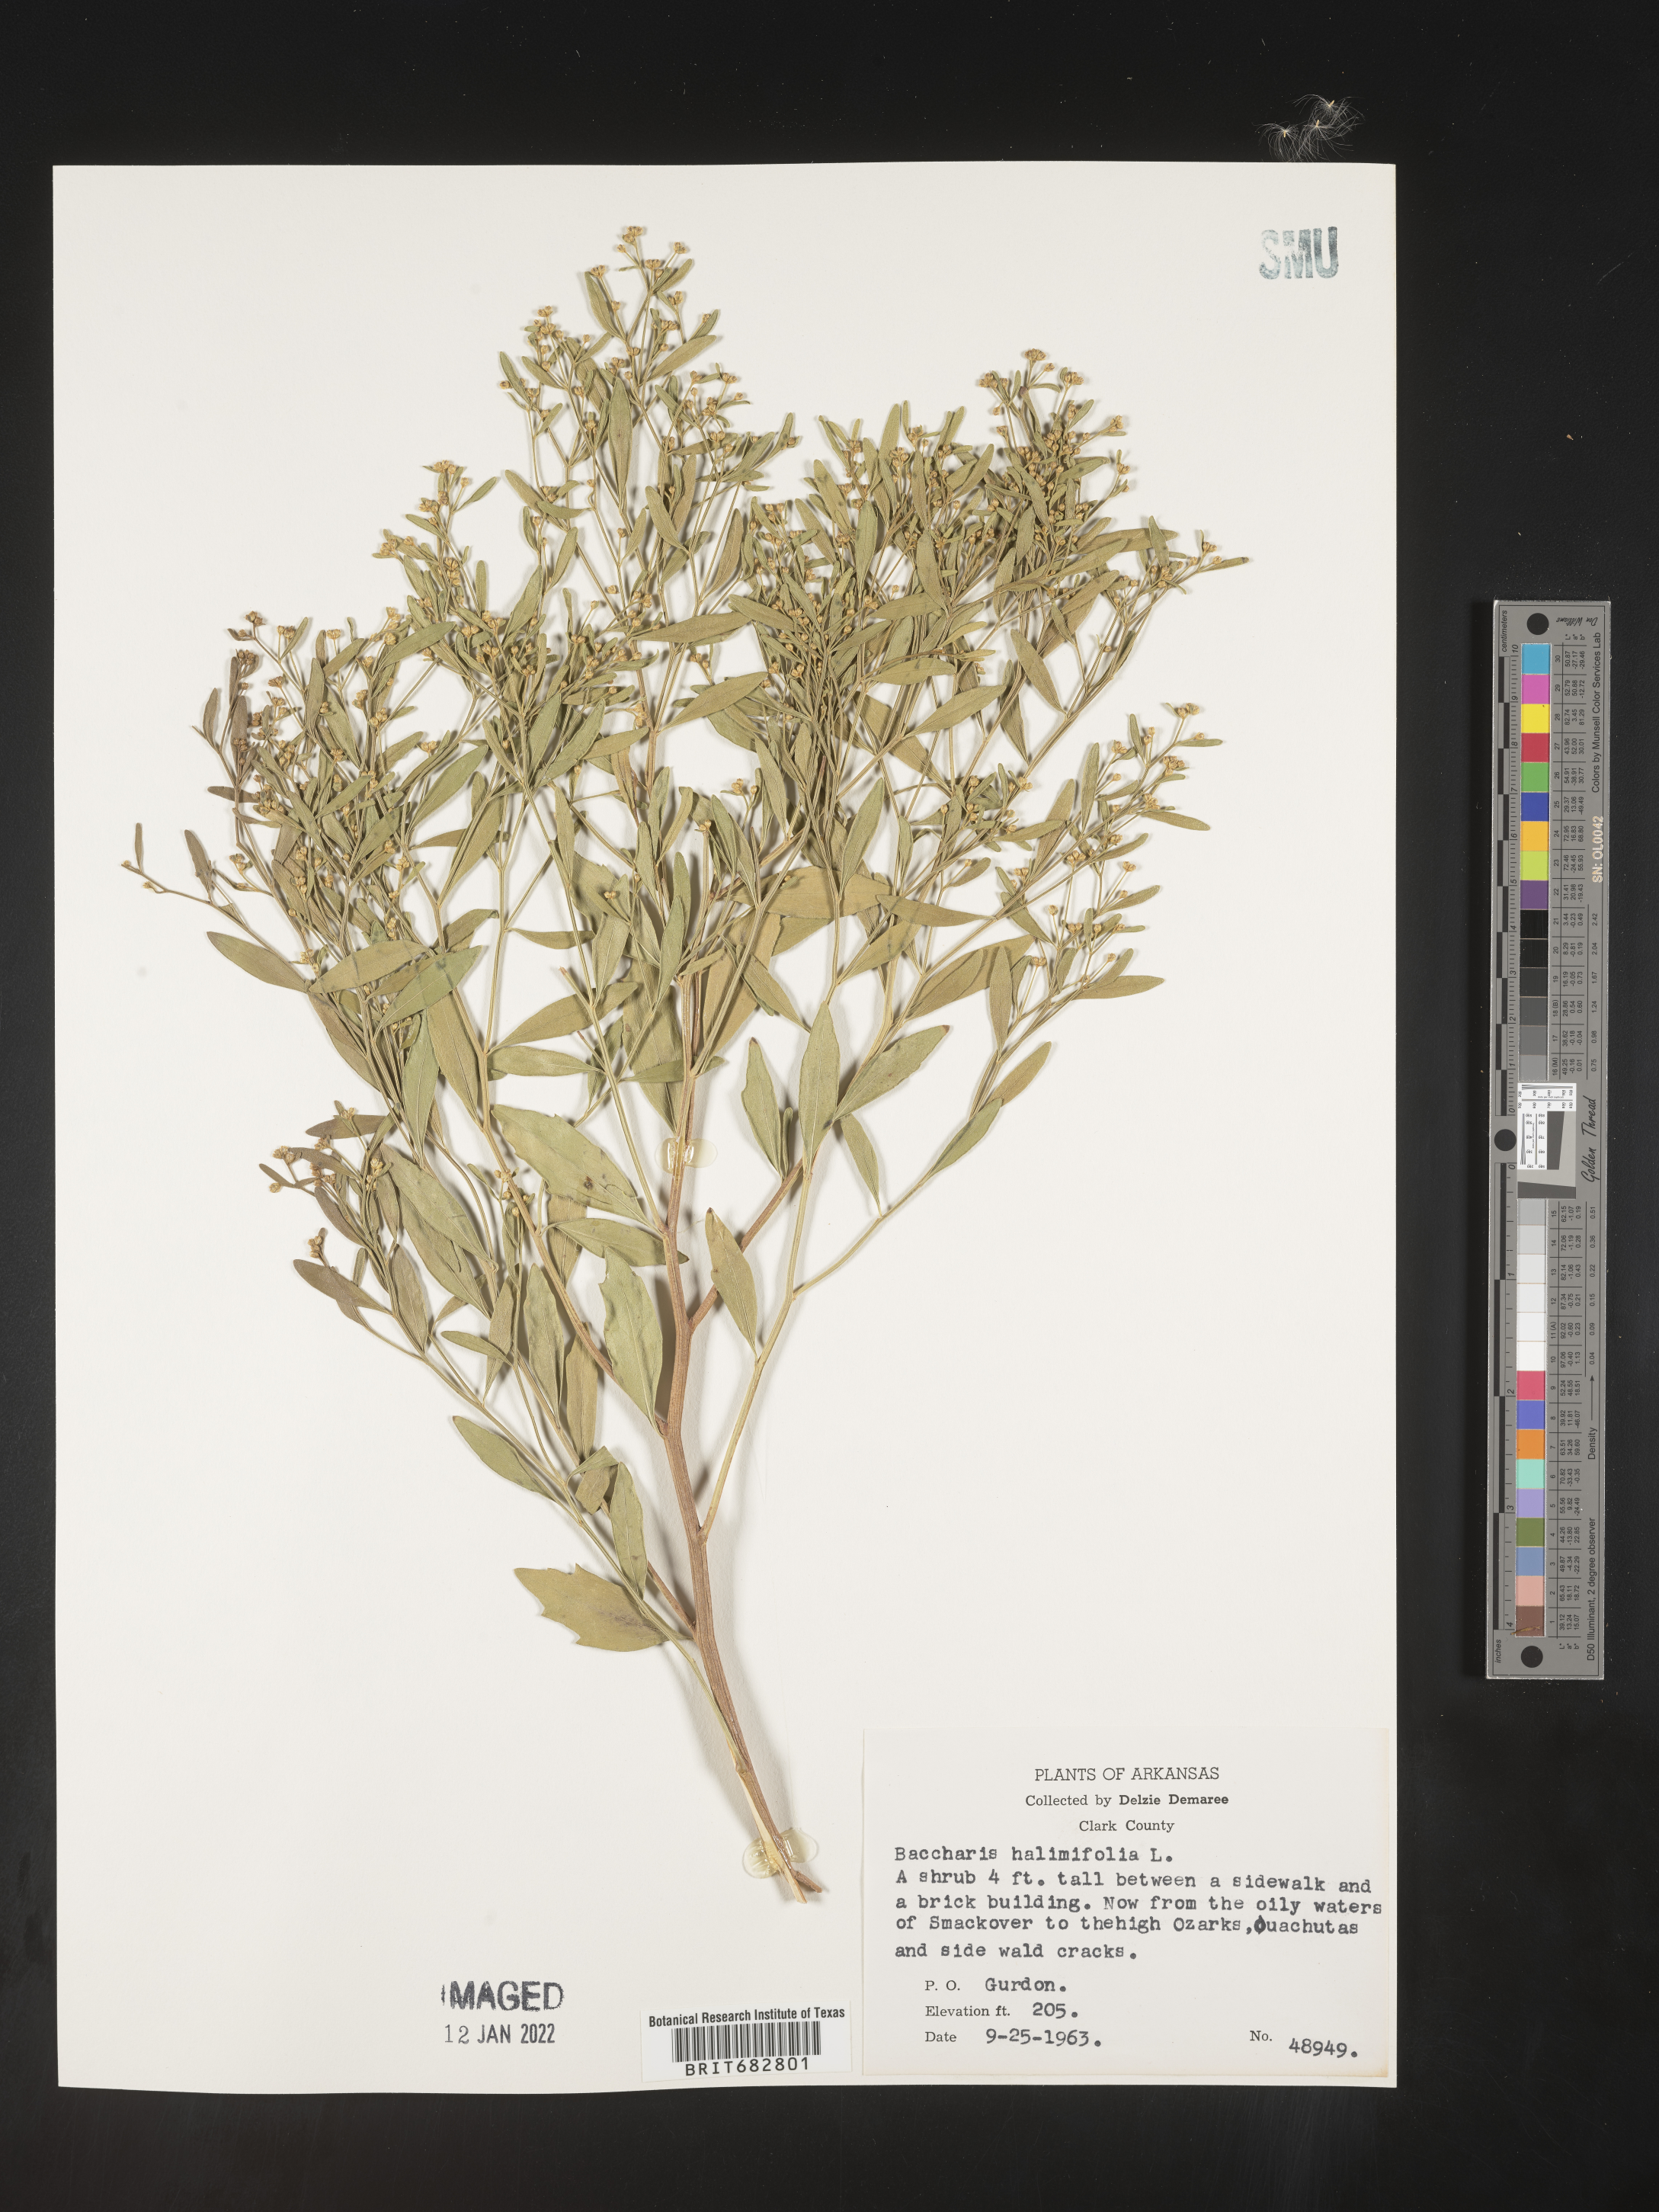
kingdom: Plantae
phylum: Tracheophyta
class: Magnoliopsida
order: Asterales
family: Asteraceae
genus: Nidorella
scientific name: Nidorella ivifolia
